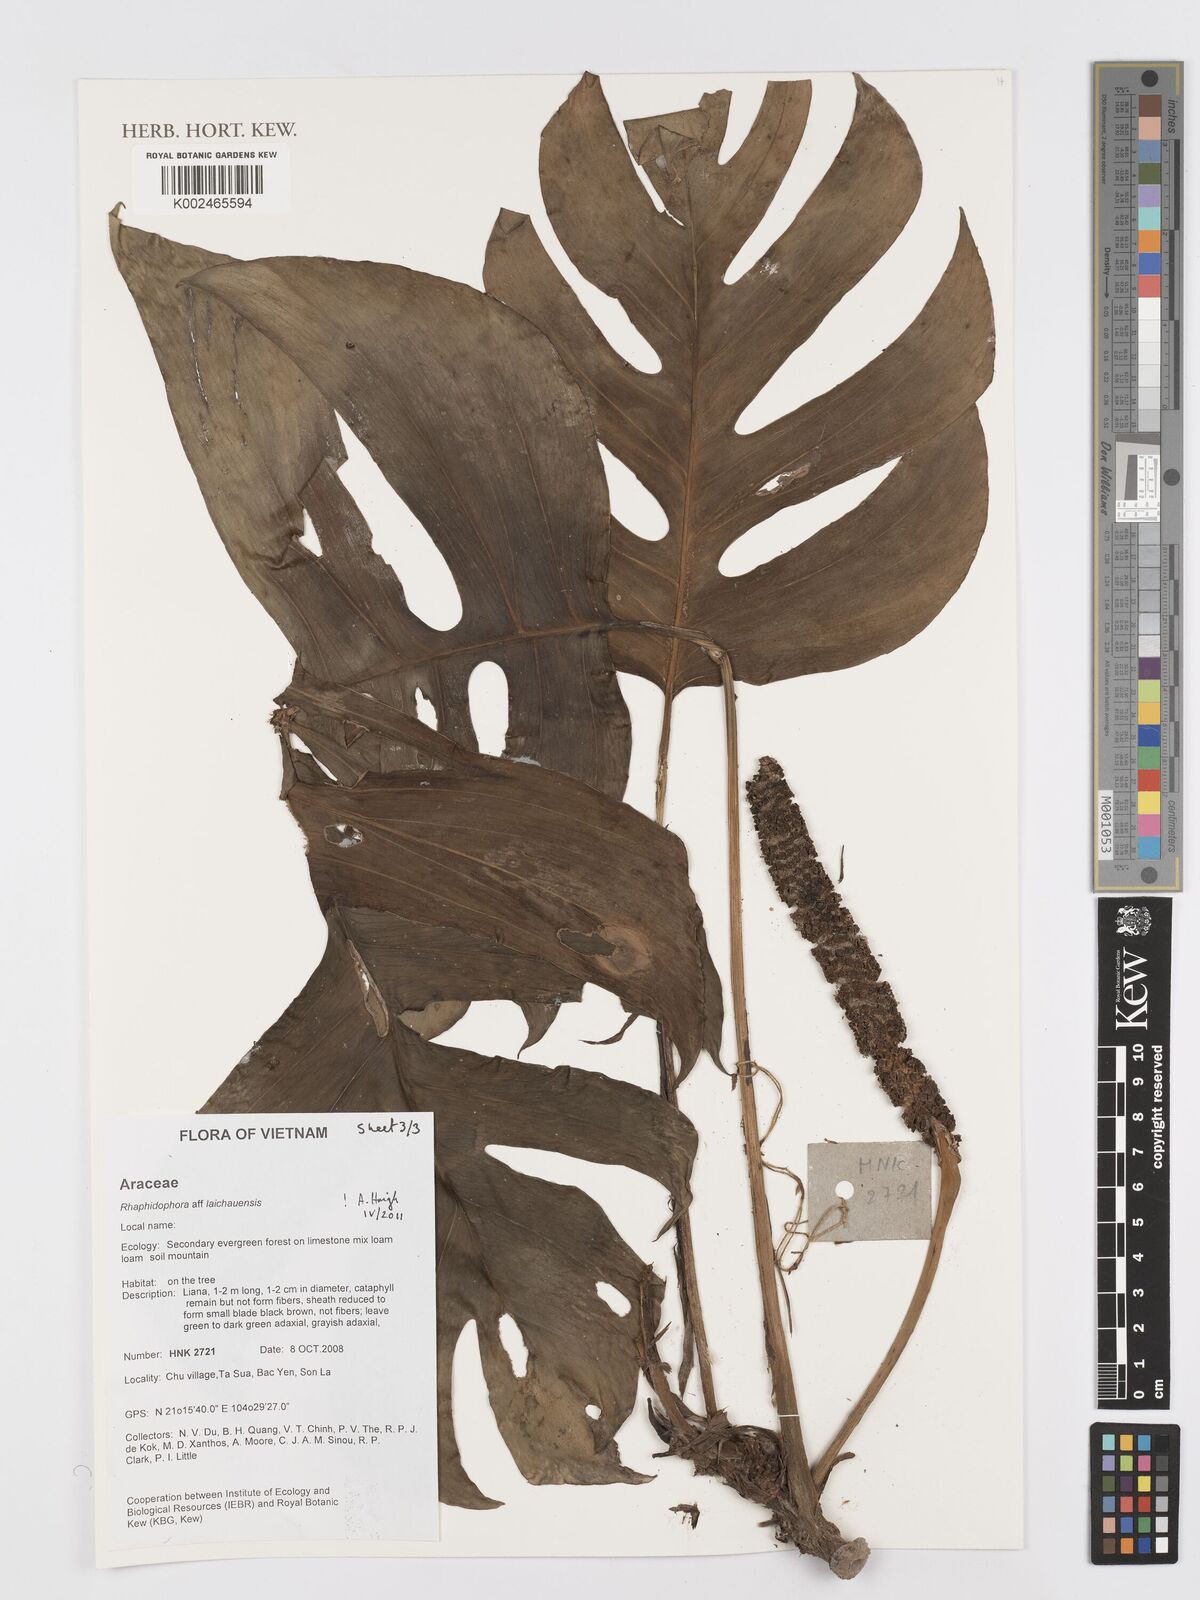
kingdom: Plantae
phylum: Tracheophyta
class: Liliopsida
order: Alismatales
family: Araceae
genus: Rhaphidophora
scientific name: Rhaphidophora
